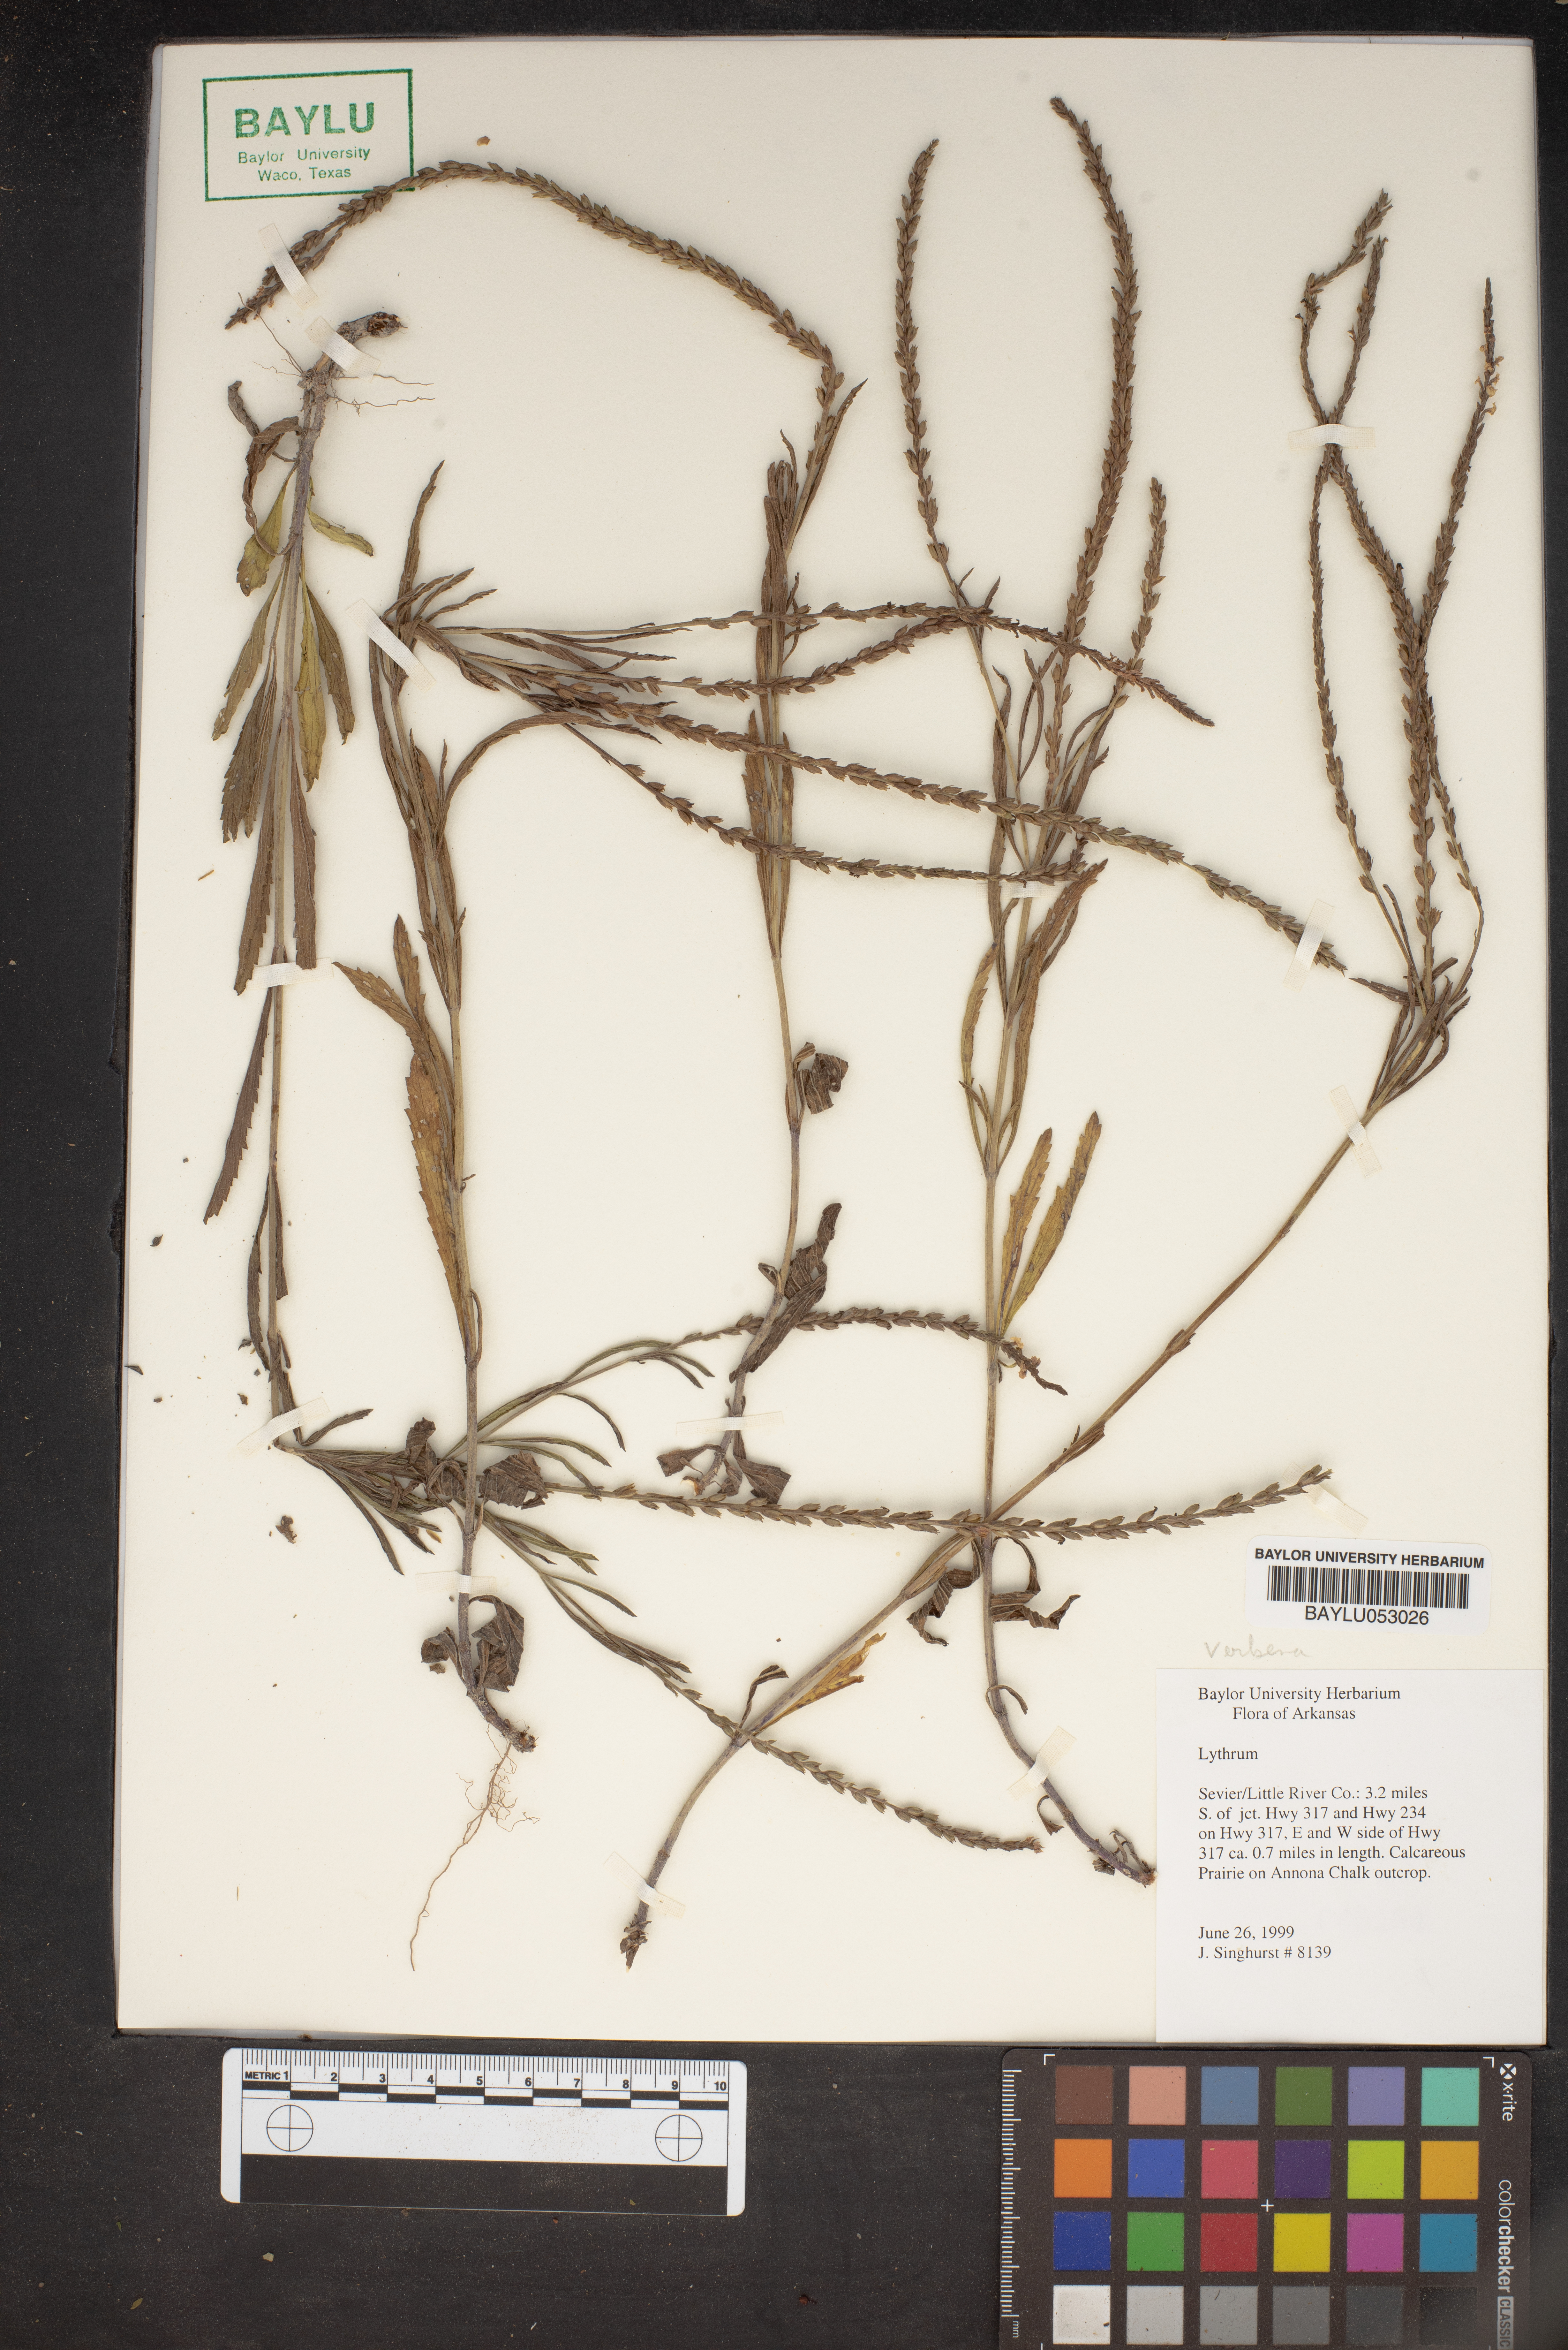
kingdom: Plantae
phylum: Tracheophyta
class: Magnoliopsida
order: Myrtales
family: Lythraceae
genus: Lythrum
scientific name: Lythrum
